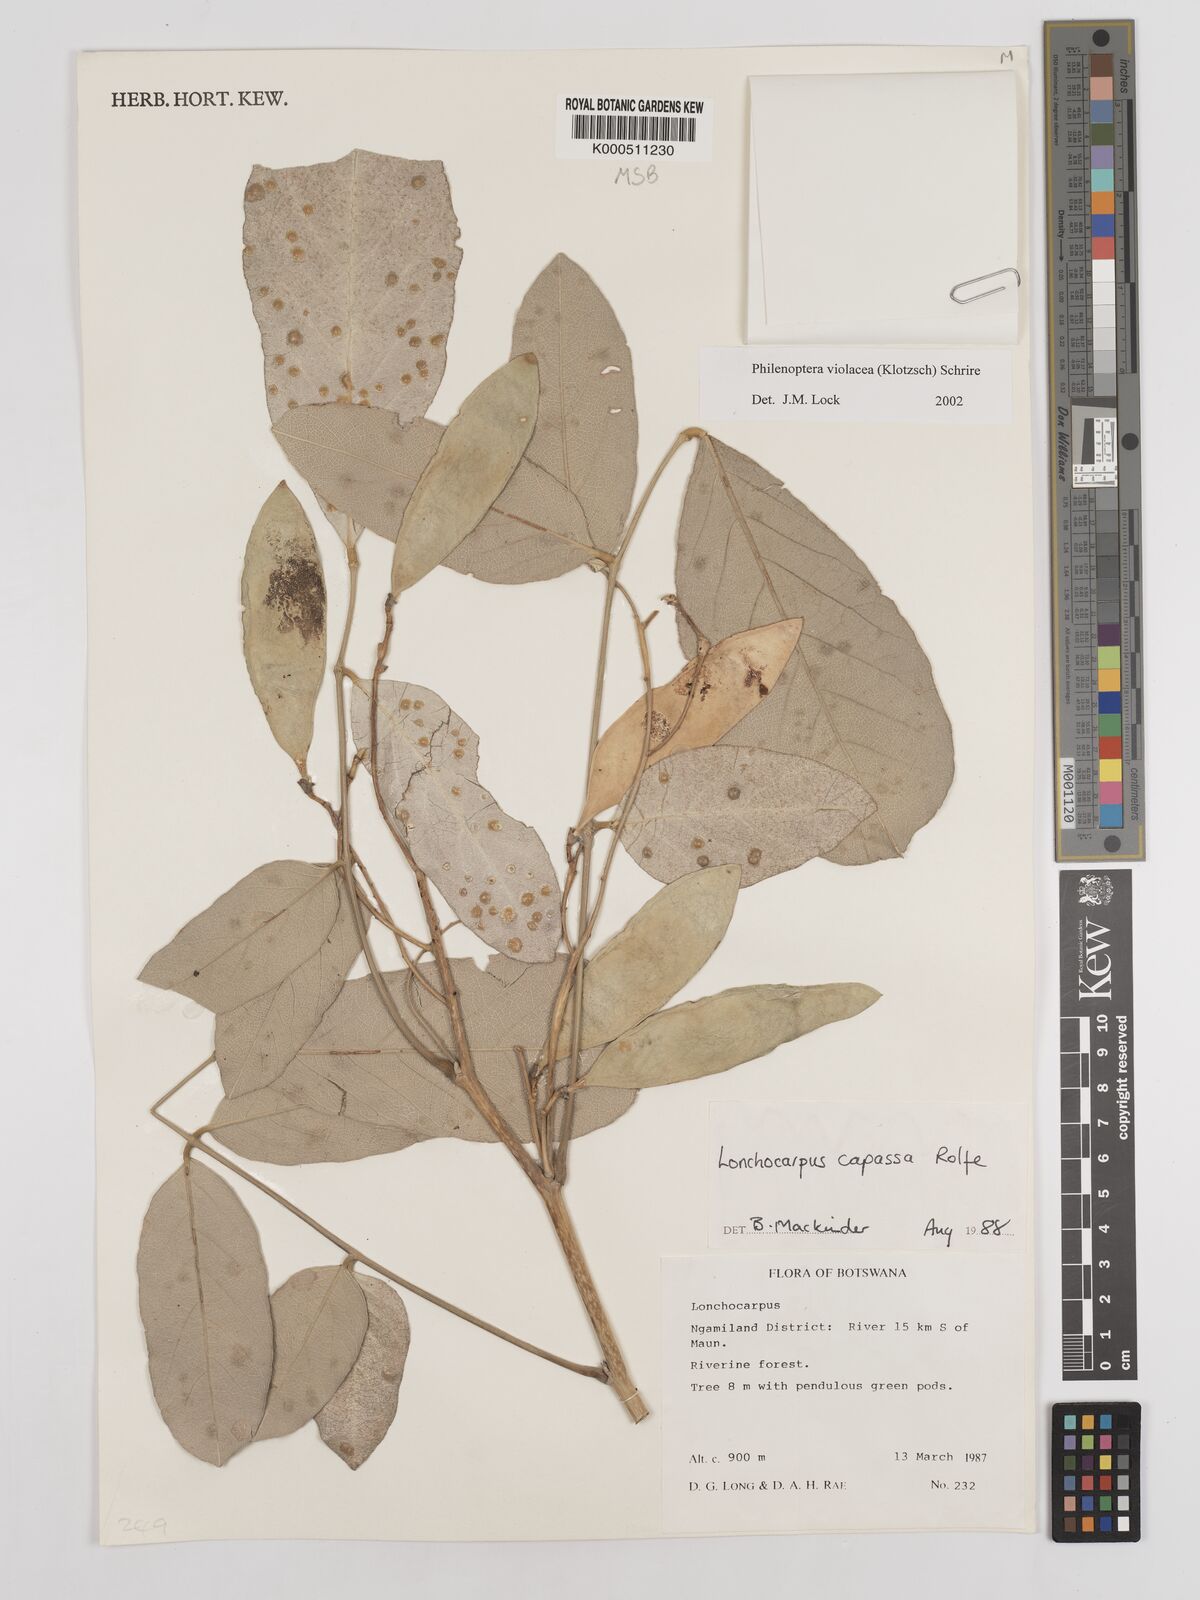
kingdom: Plantae
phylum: Tracheophyta
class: Magnoliopsida
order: Fabales
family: Fabaceae
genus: Philenoptera
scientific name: Philenoptera violacea
